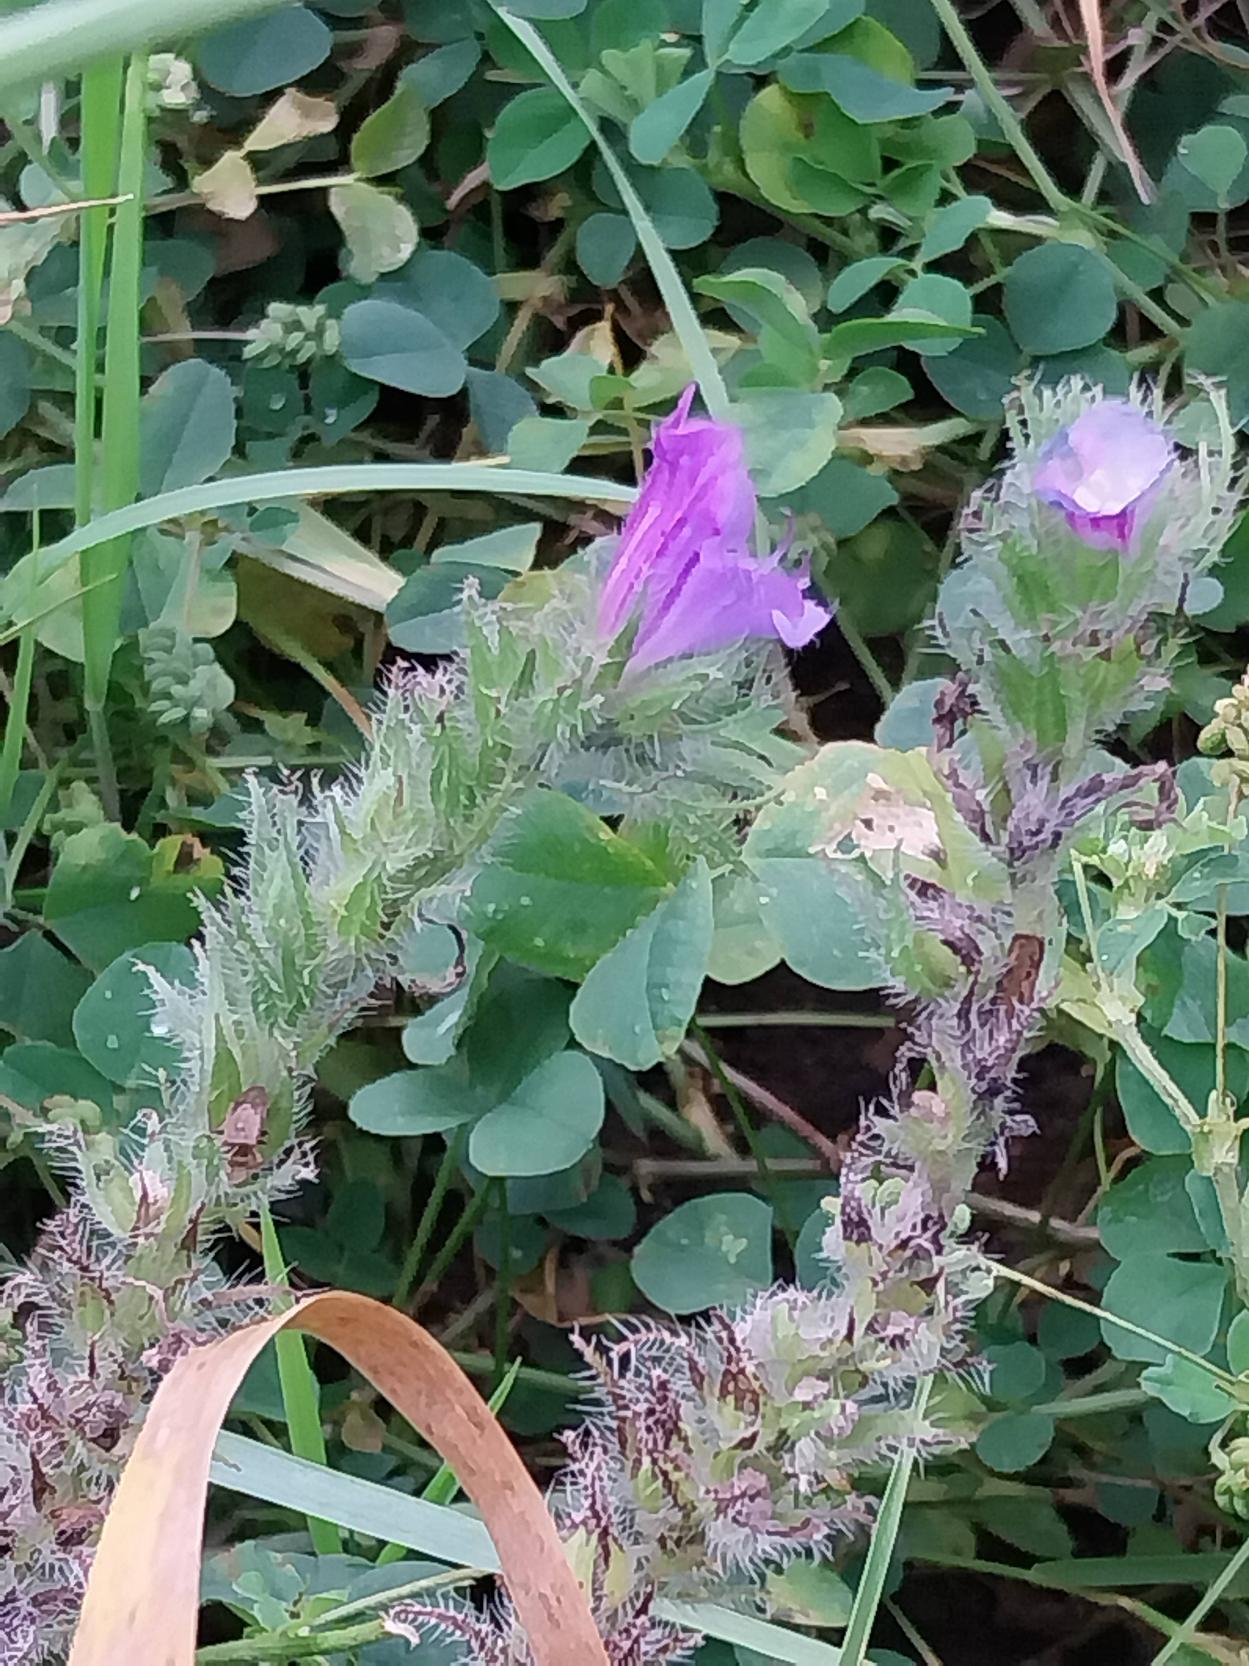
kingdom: Plantae
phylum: Tracheophyta
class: Magnoliopsida
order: Boraginales
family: Boraginaceae
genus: Echium
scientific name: Echium plantagineum
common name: Vejbred-slangehoved
